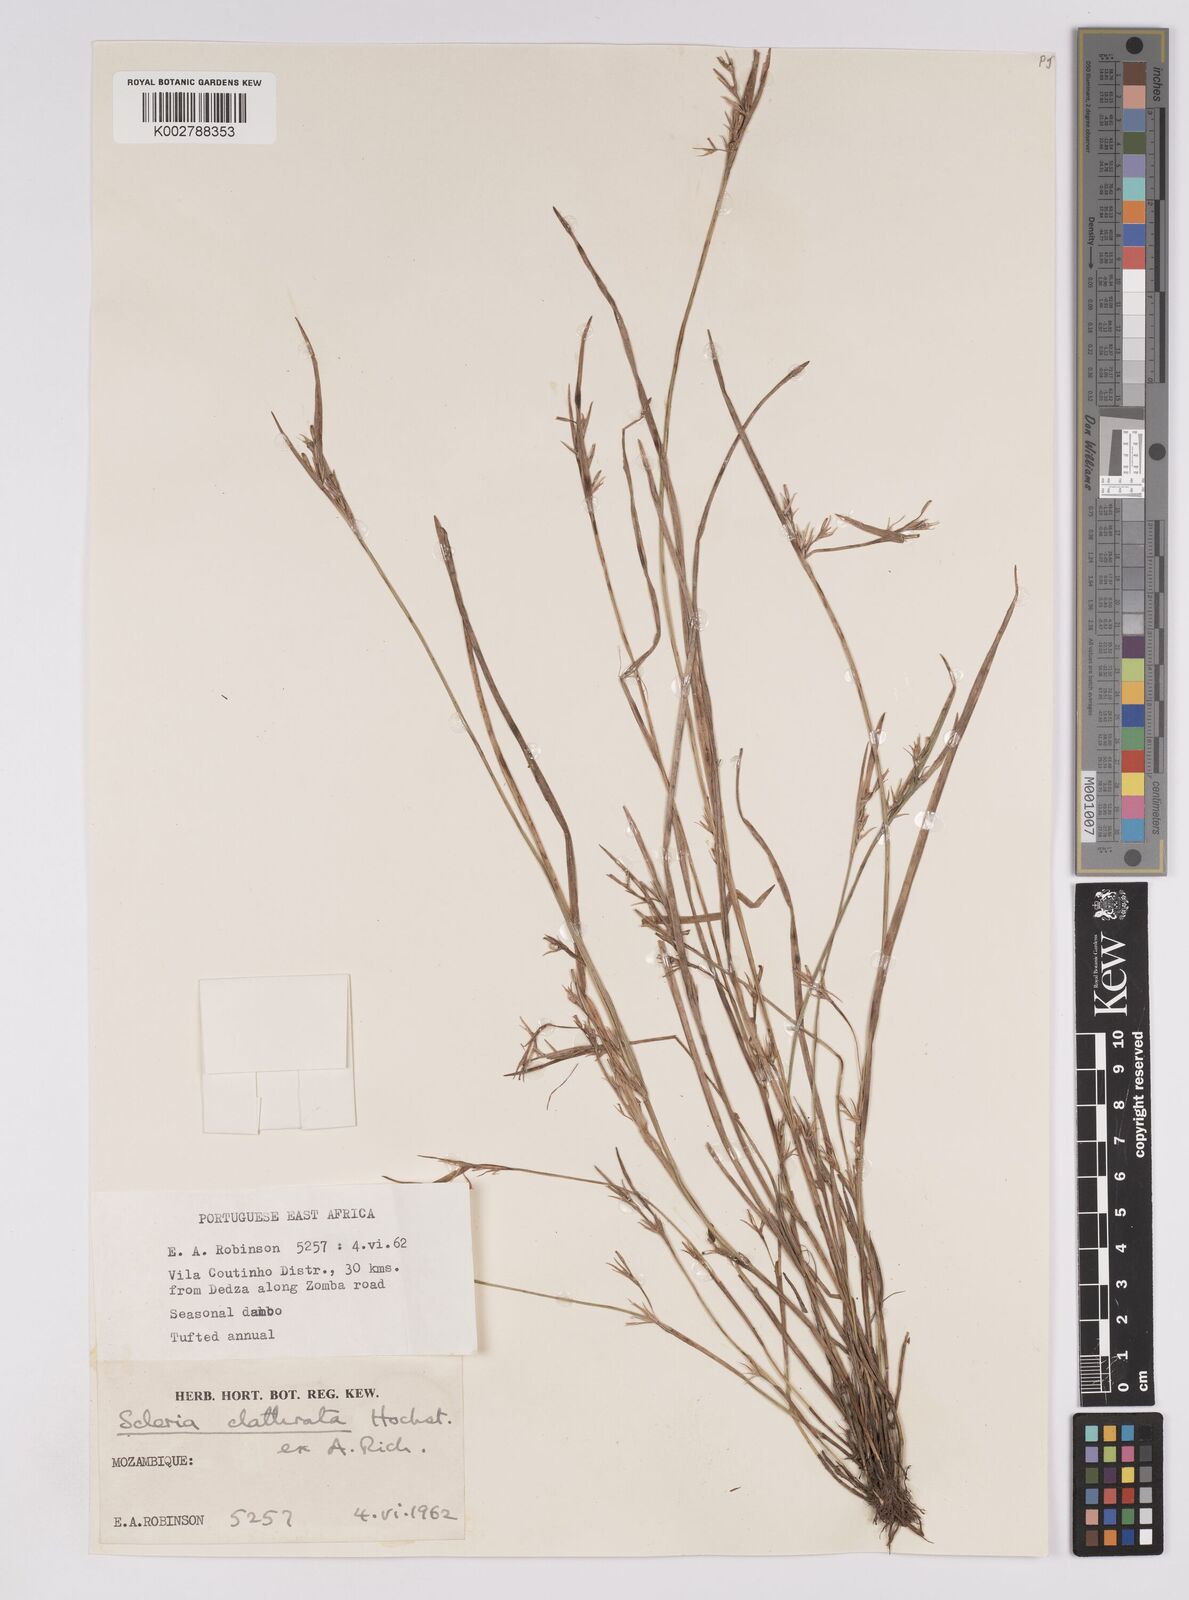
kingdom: Plantae
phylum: Tracheophyta
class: Liliopsida
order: Poales
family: Cyperaceae
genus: Scleria
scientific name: Scleria clathrata
